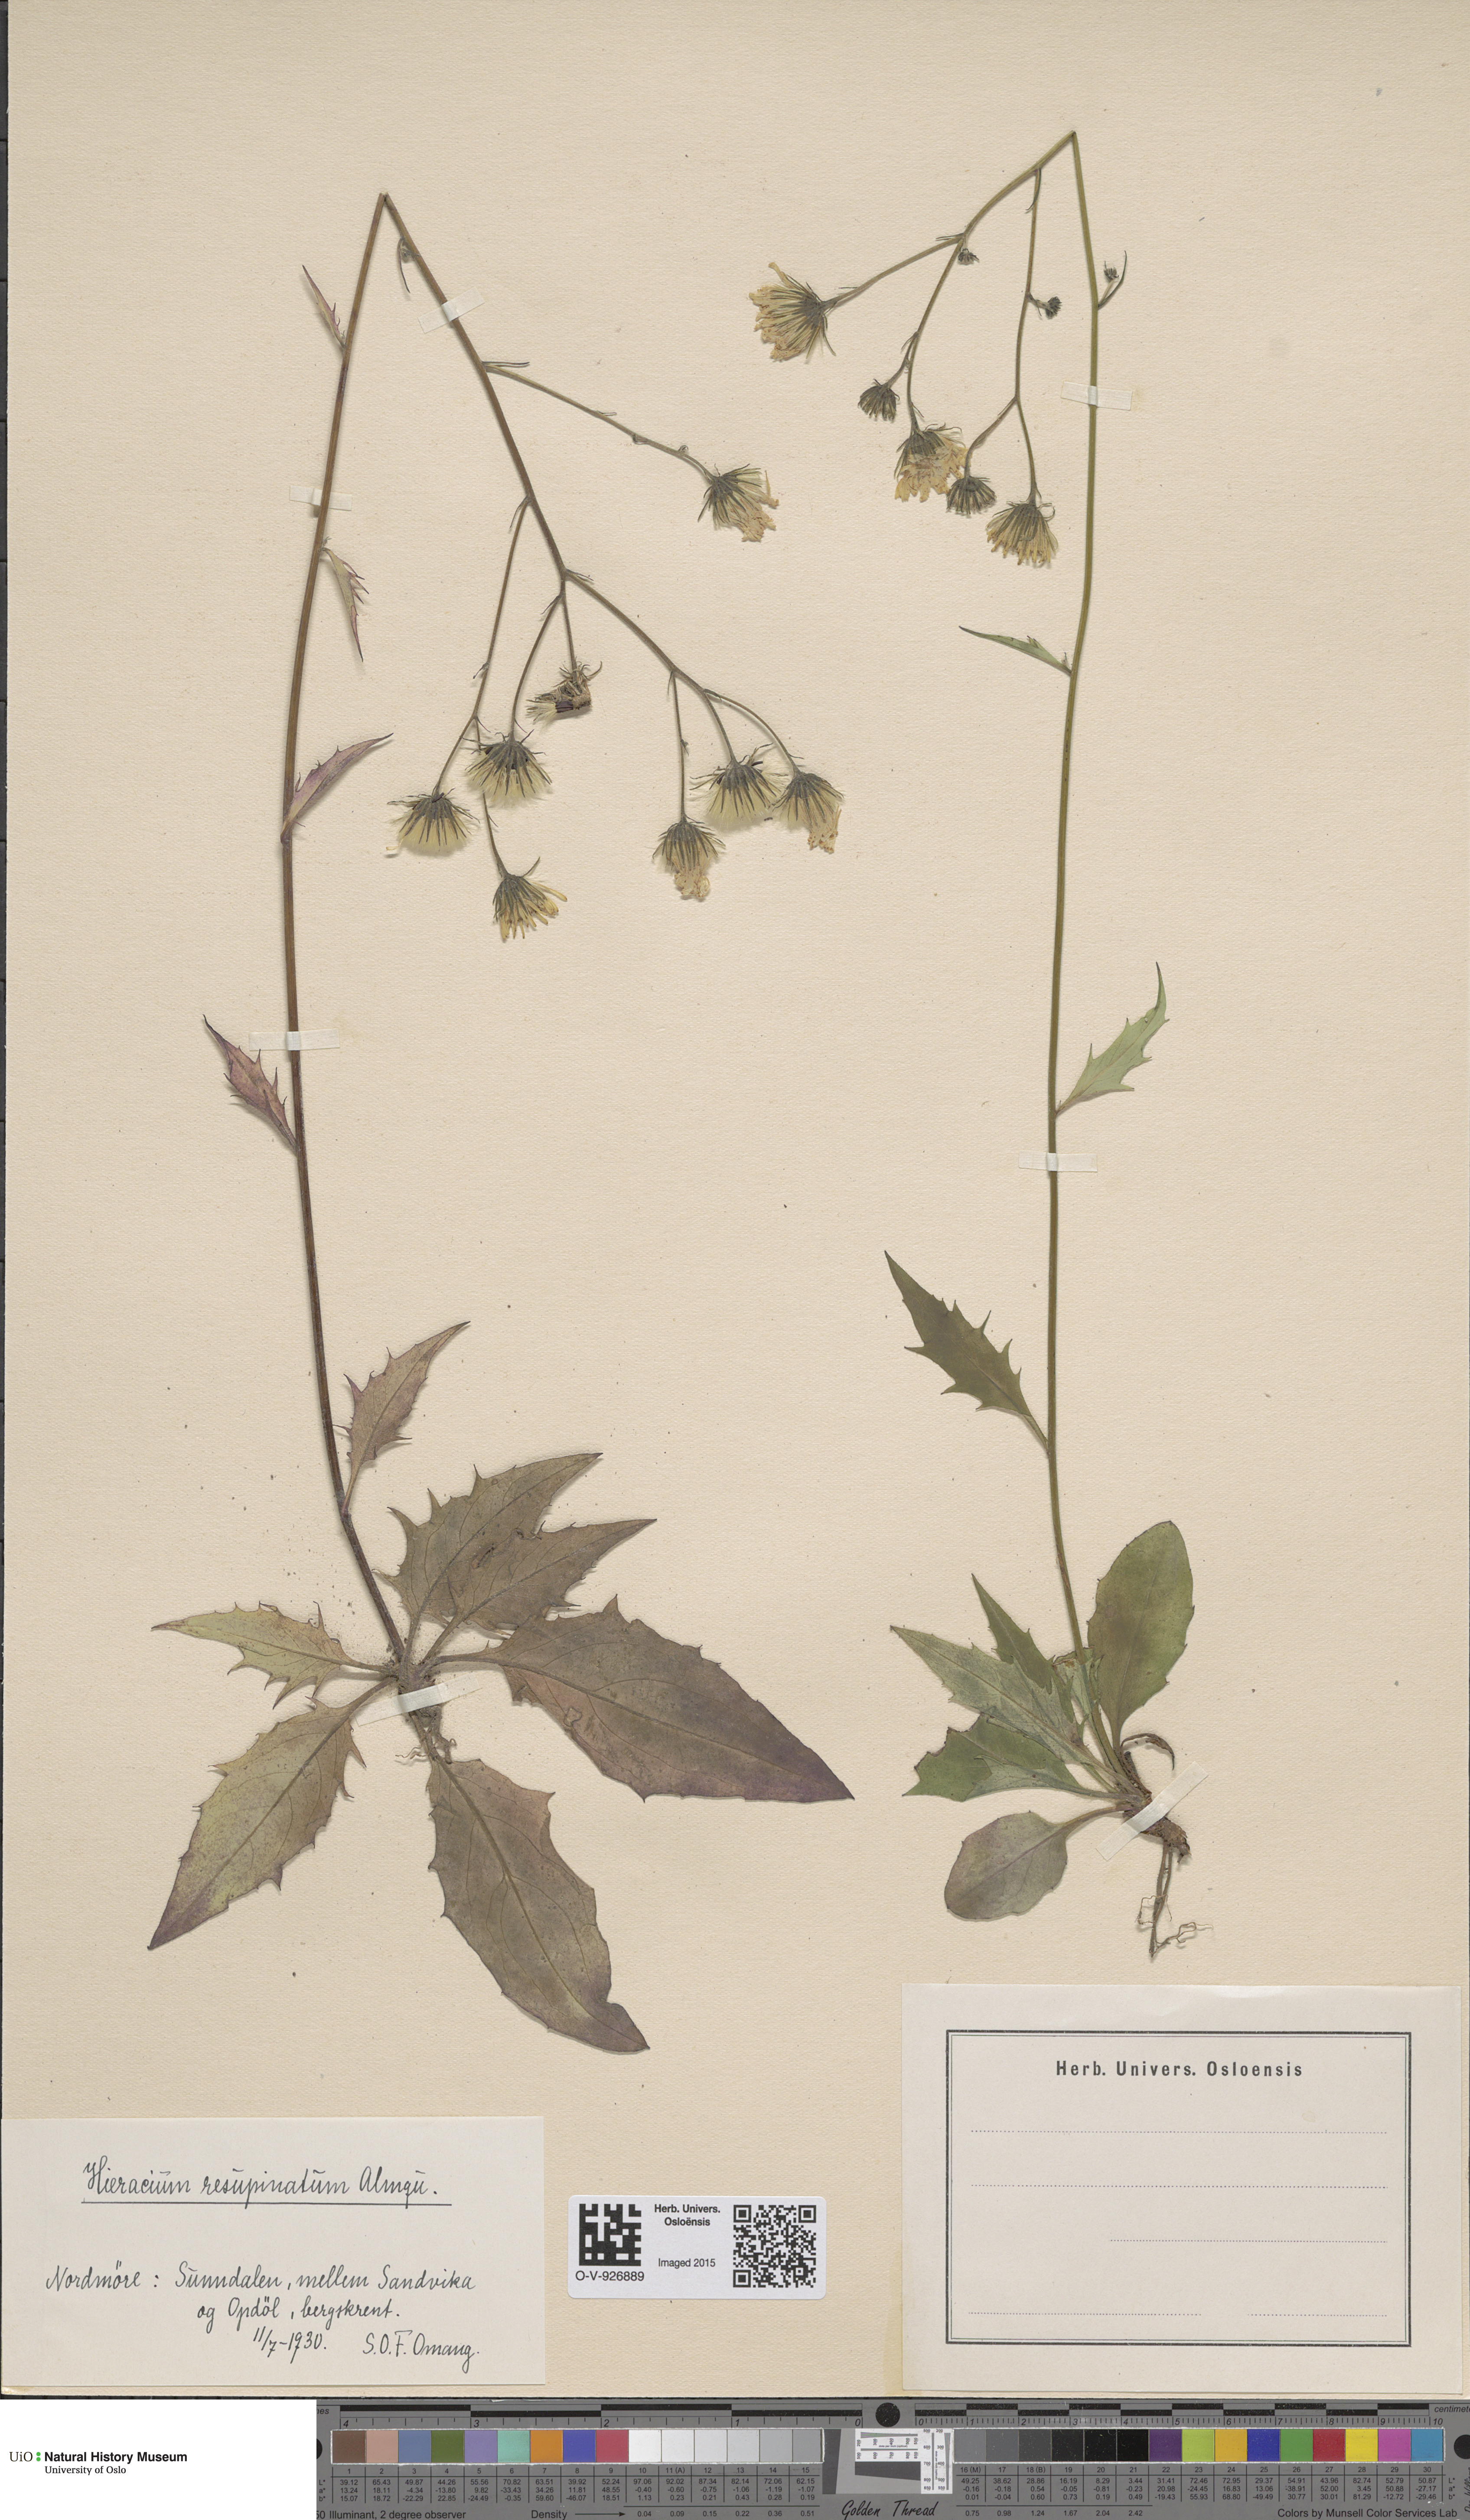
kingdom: Plantae
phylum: Tracheophyta
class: Magnoliopsida
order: Asterales
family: Asteraceae
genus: Hieracium
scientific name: Hieracium resupinatum
